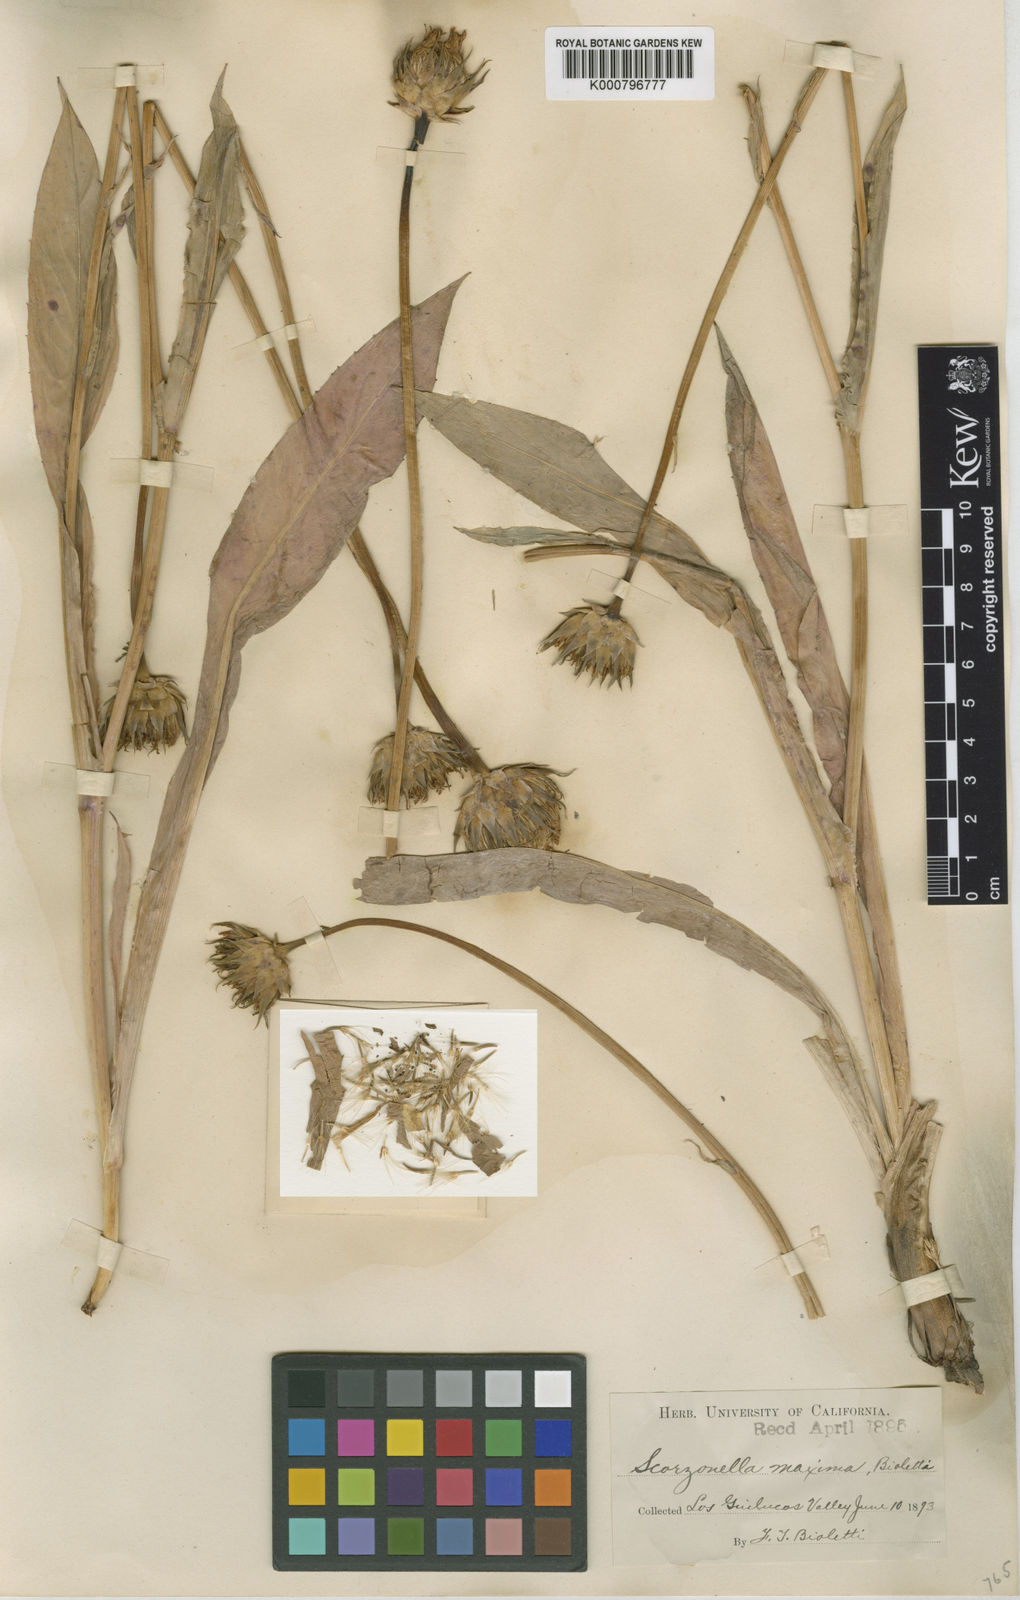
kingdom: Plantae
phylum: Tracheophyta
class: Magnoliopsida
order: Asterales
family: Asteraceae
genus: Microseris
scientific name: Microseris laciniata
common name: Cut-leaf microseris
